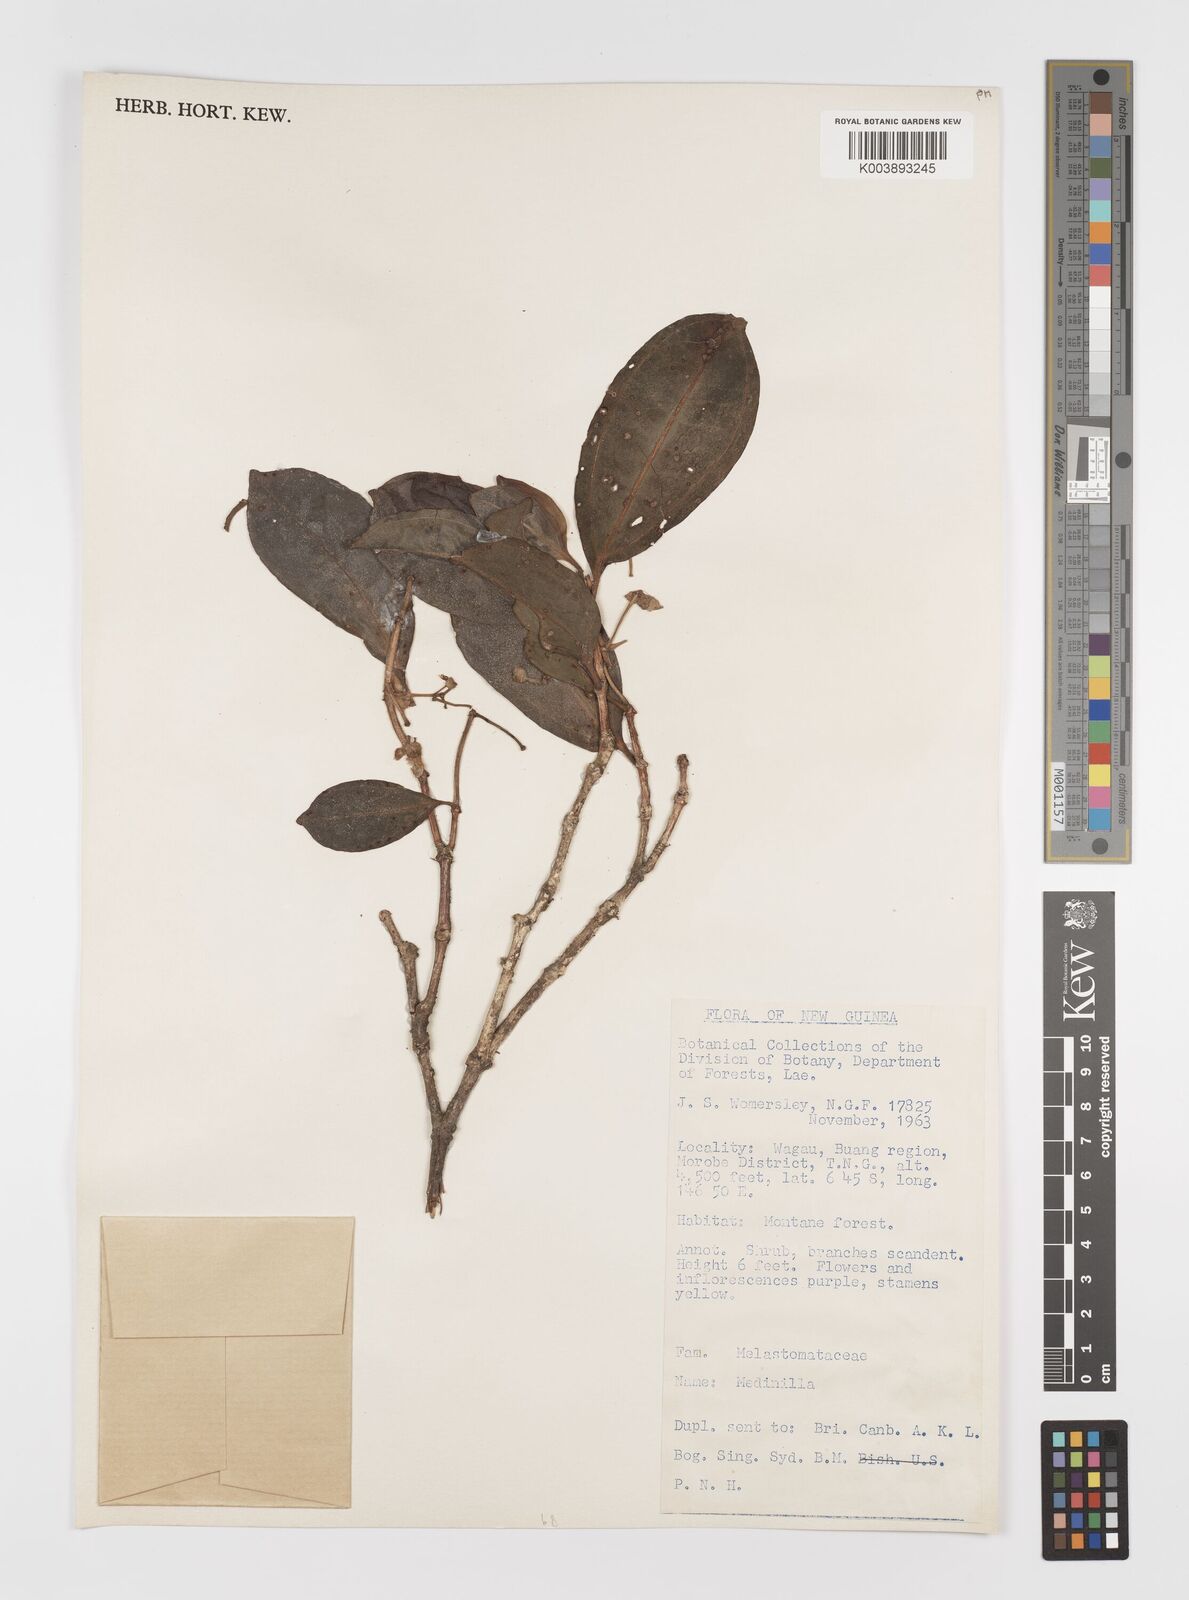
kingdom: Plantae
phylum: Tracheophyta
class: Magnoliopsida
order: Myrtales
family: Melastomataceae
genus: Medinilla
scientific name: Medinilla
